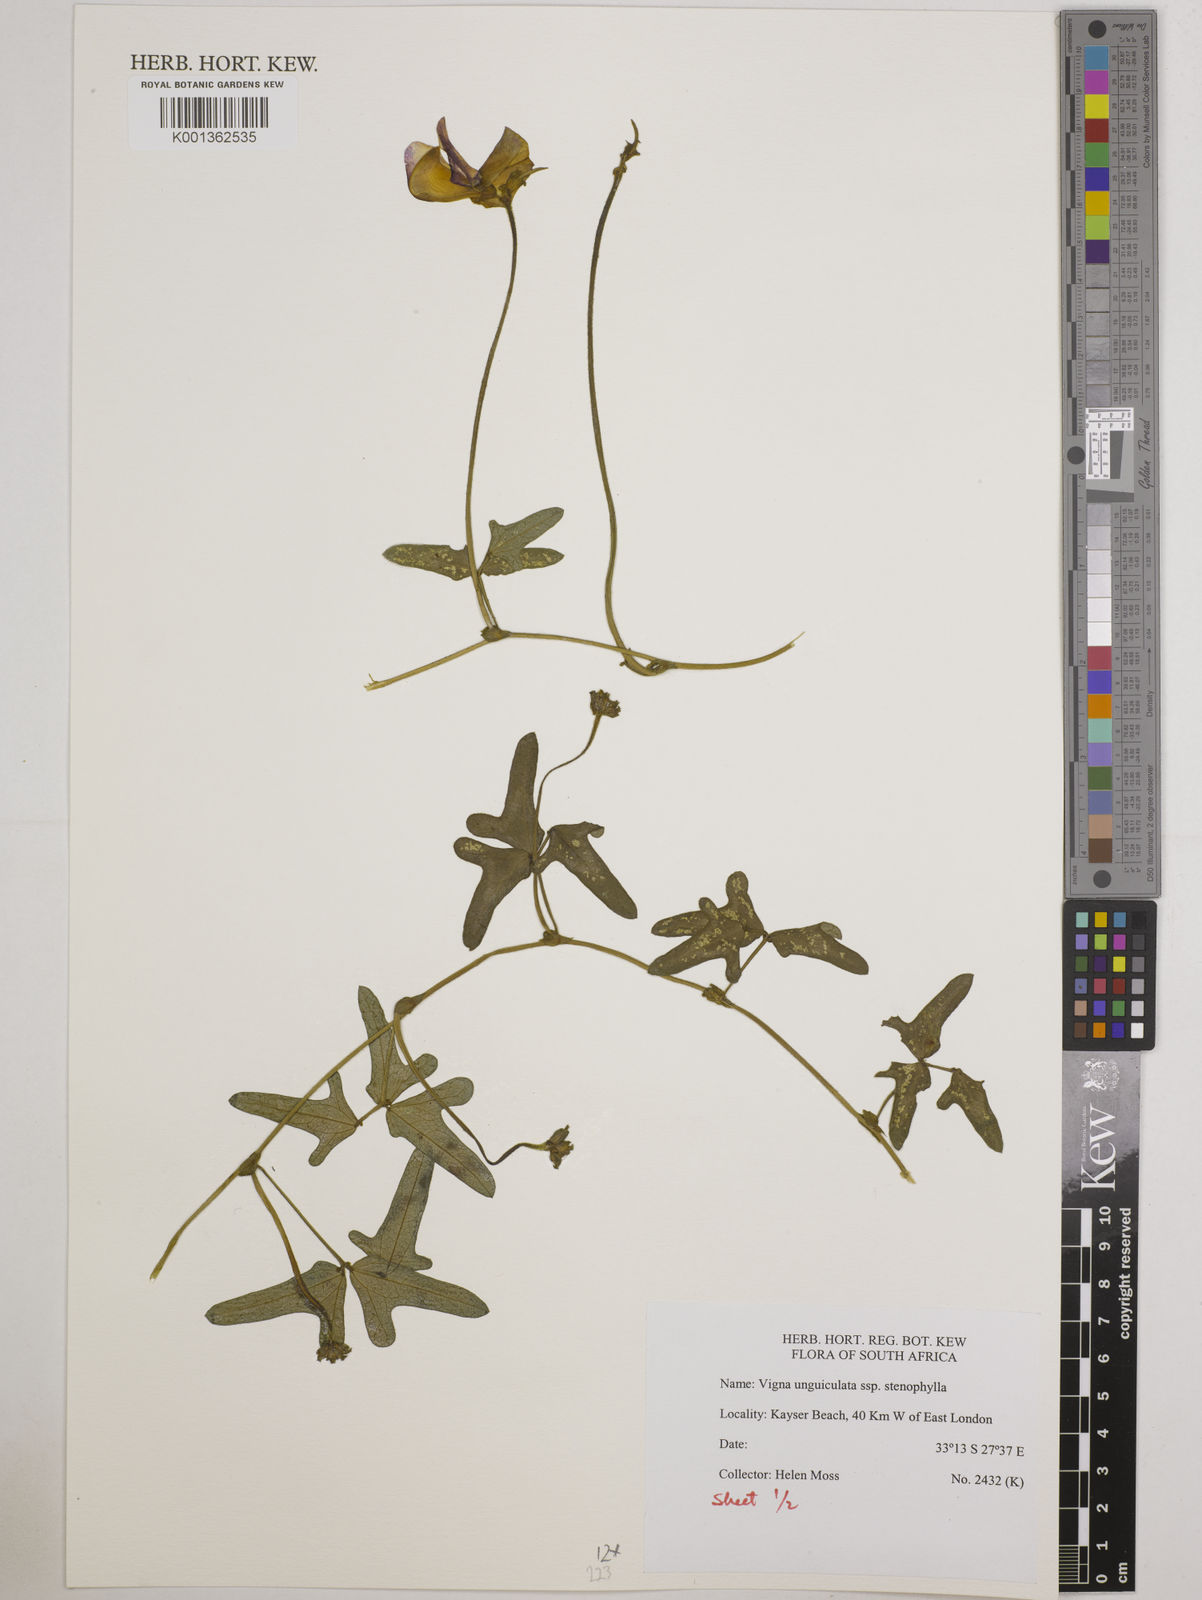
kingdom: Plantae
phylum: Tracheophyta
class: Magnoliopsida
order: Fabales
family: Fabaceae
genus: Vigna
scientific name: Vigna
